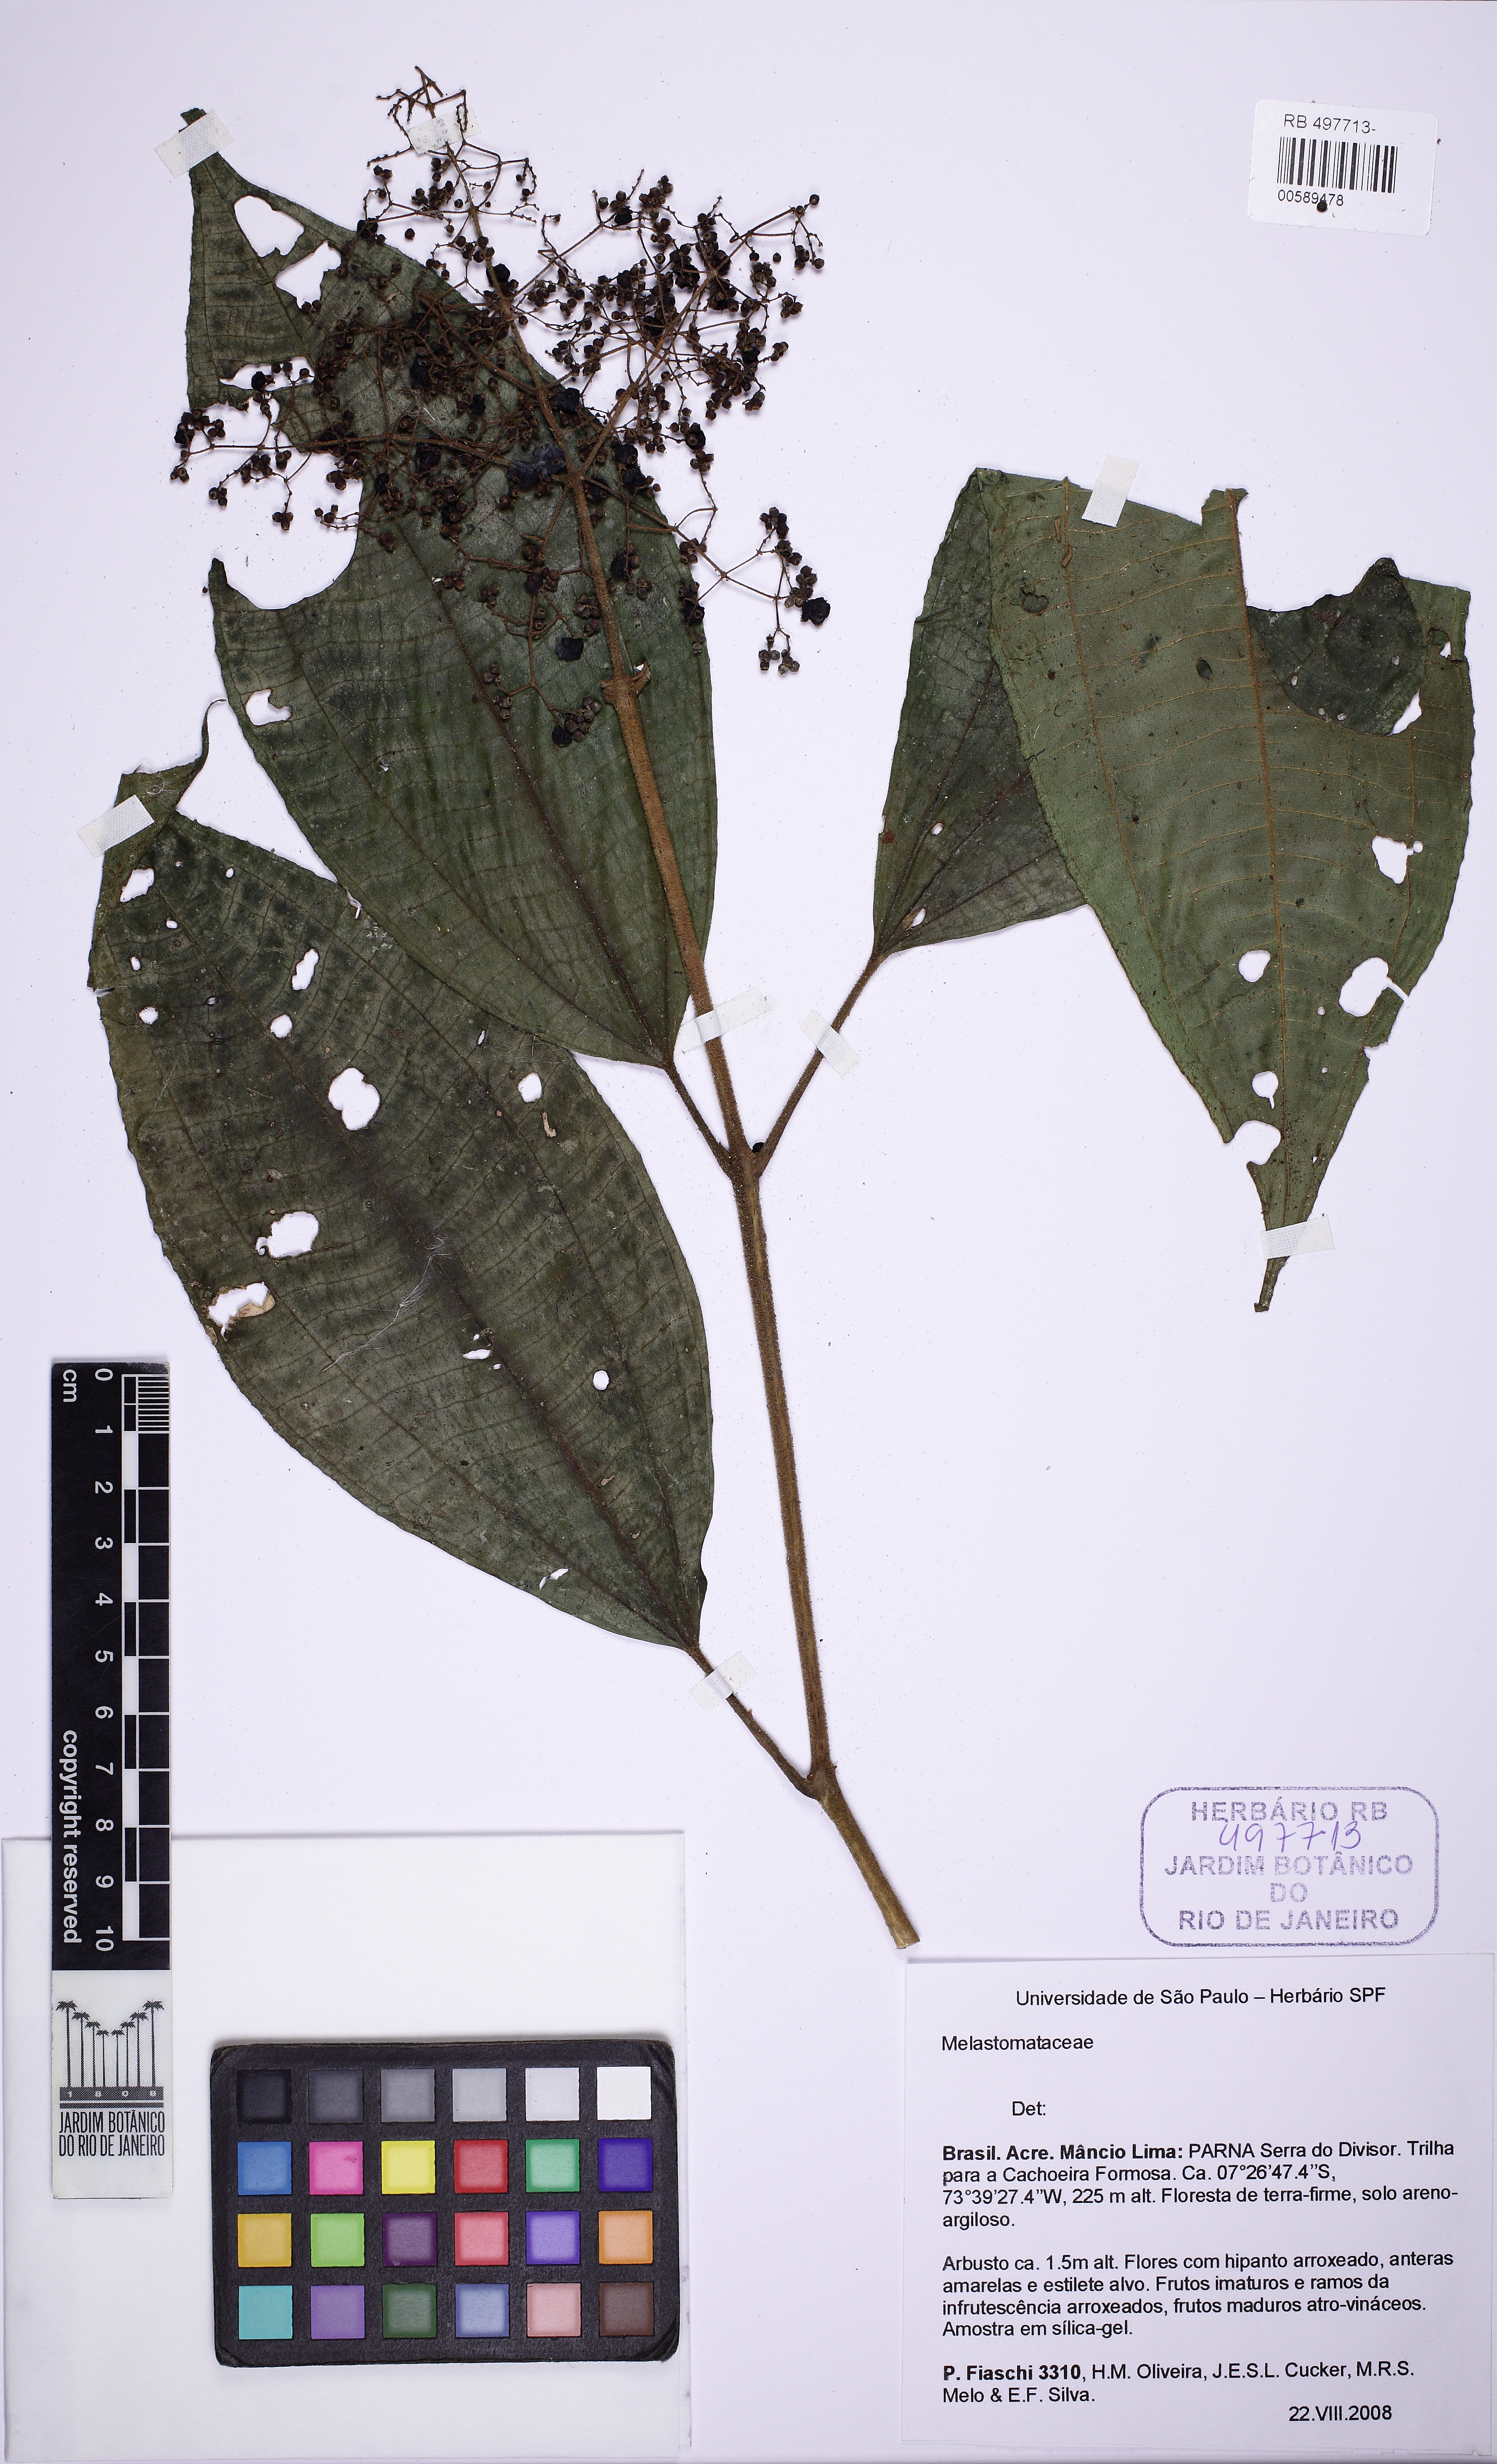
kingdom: Plantae
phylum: Tracheophyta
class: Magnoliopsida
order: Myrtales
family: Melastomataceae
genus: Miconia
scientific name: Miconia wagneri
